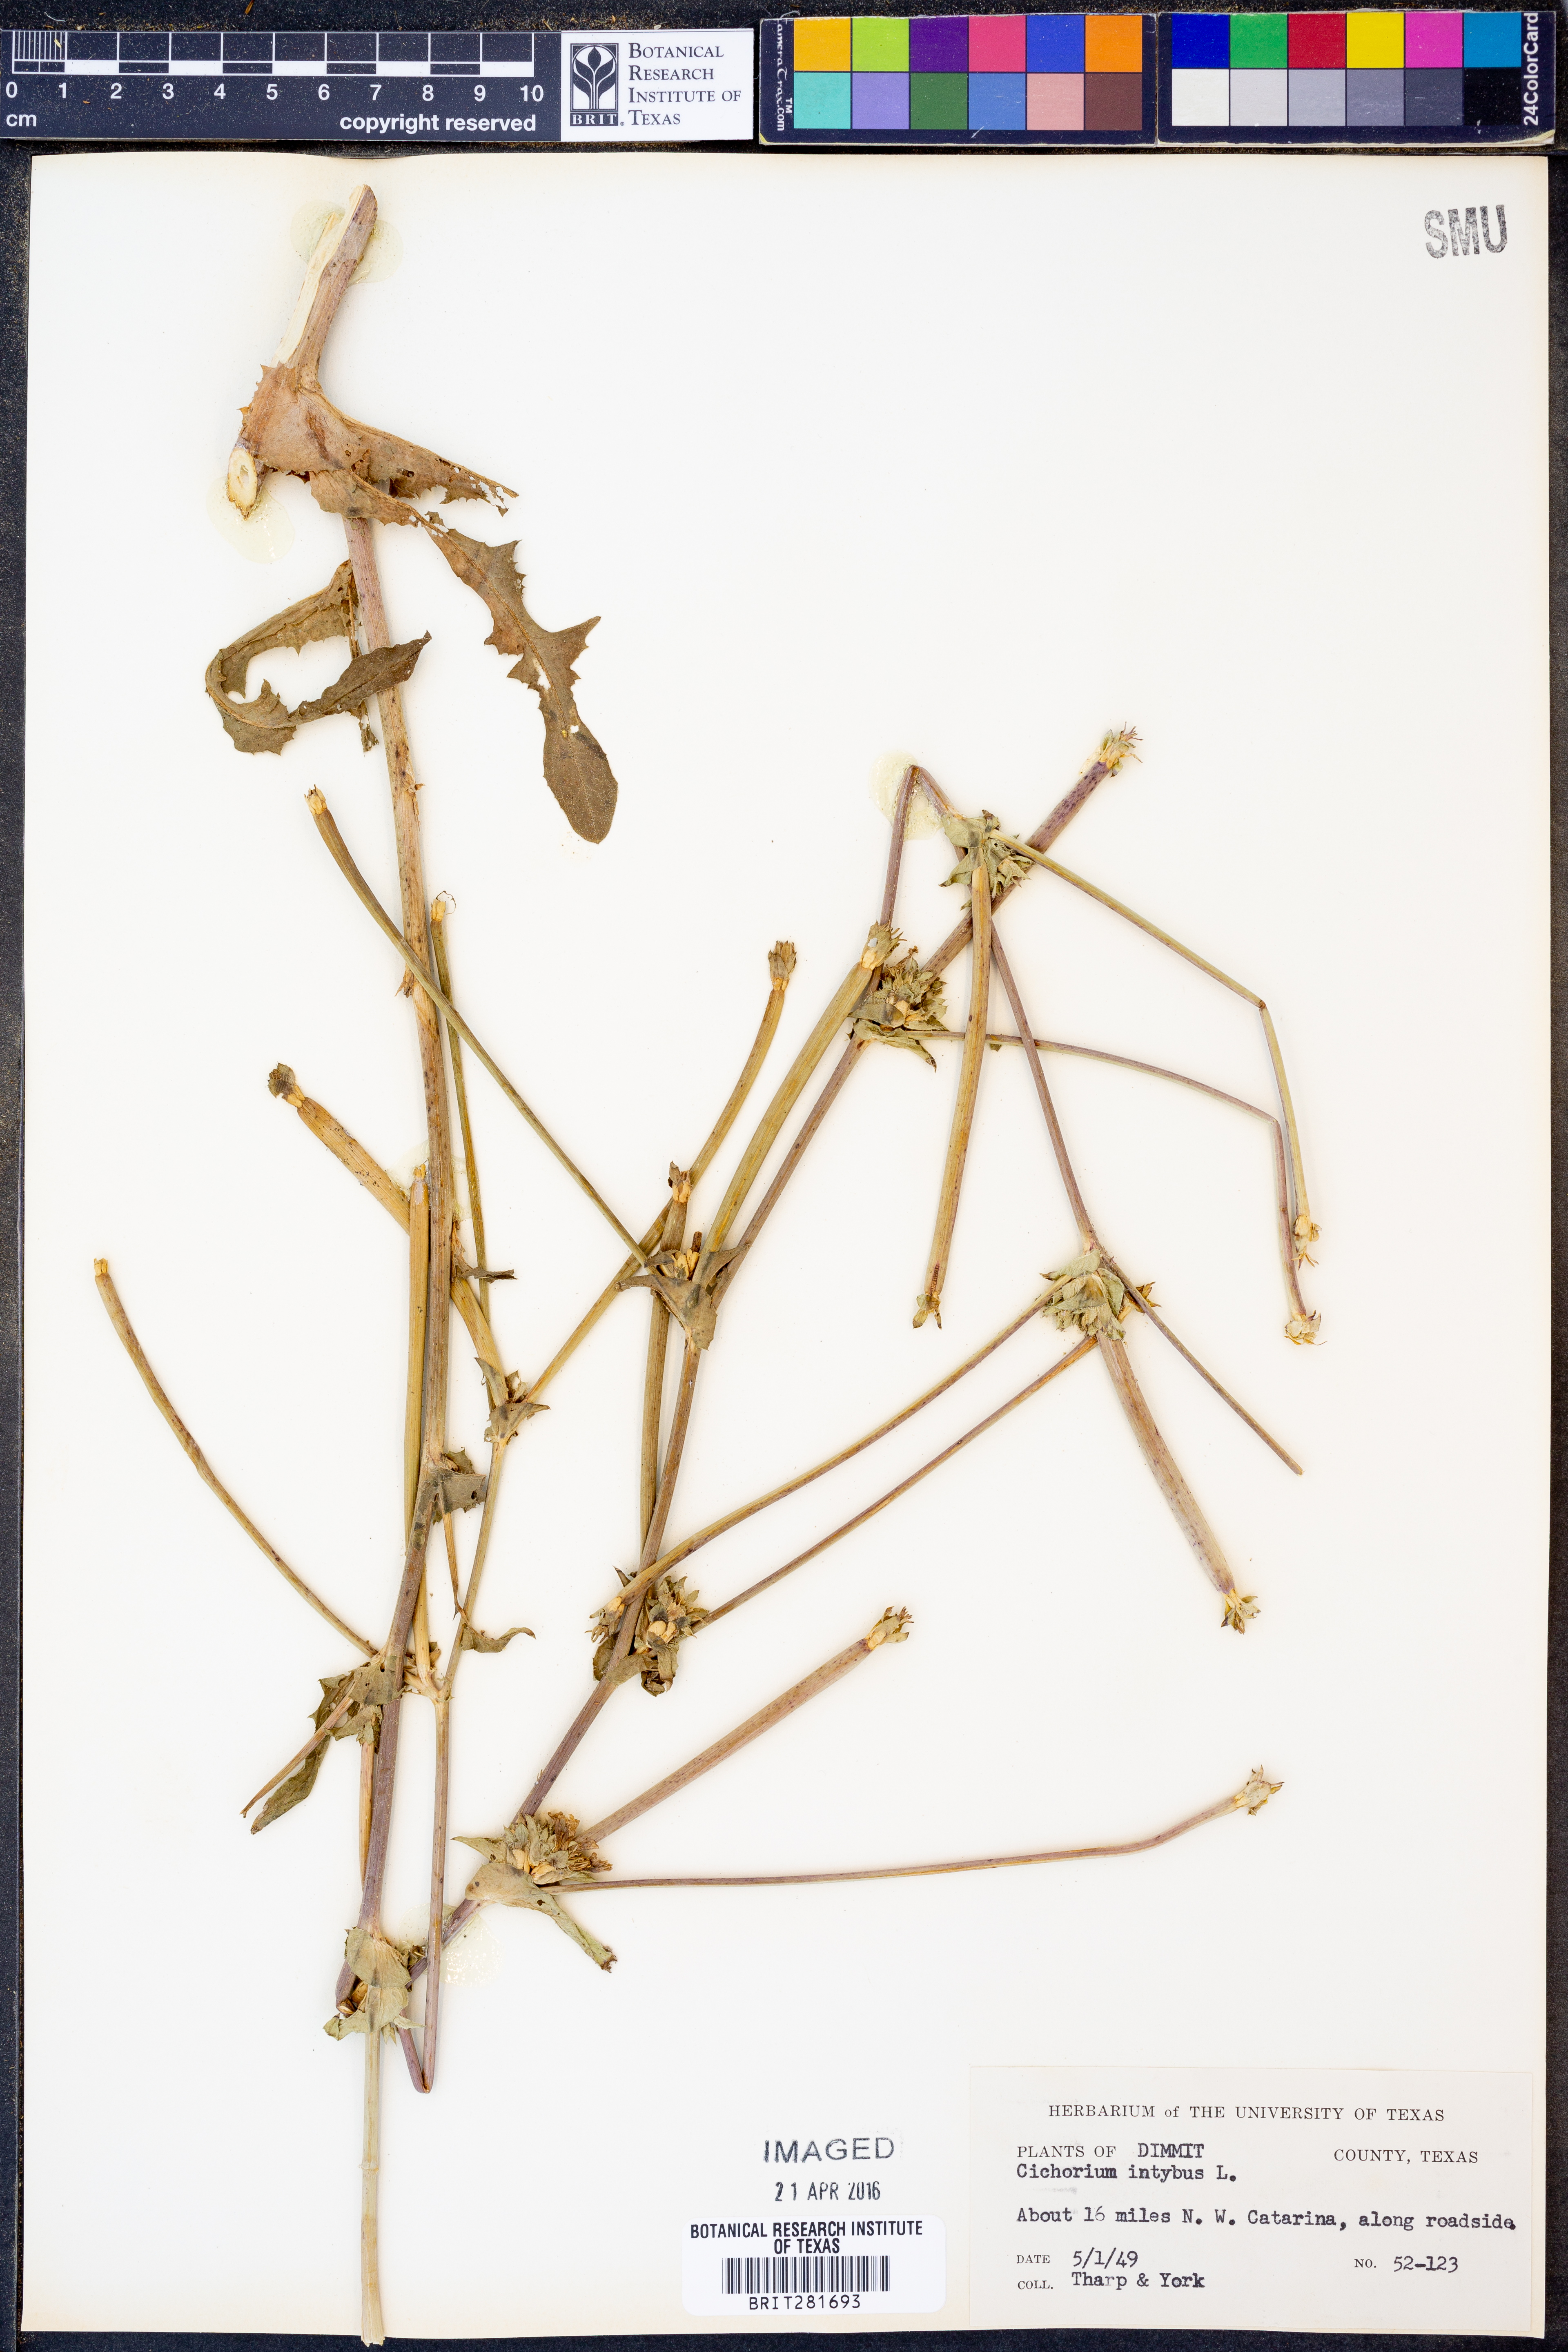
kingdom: Plantae
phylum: Tracheophyta
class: Magnoliopsida
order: Asterales
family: Asteraceae
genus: Cichorium
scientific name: Cichorium intybus
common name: Chicory
